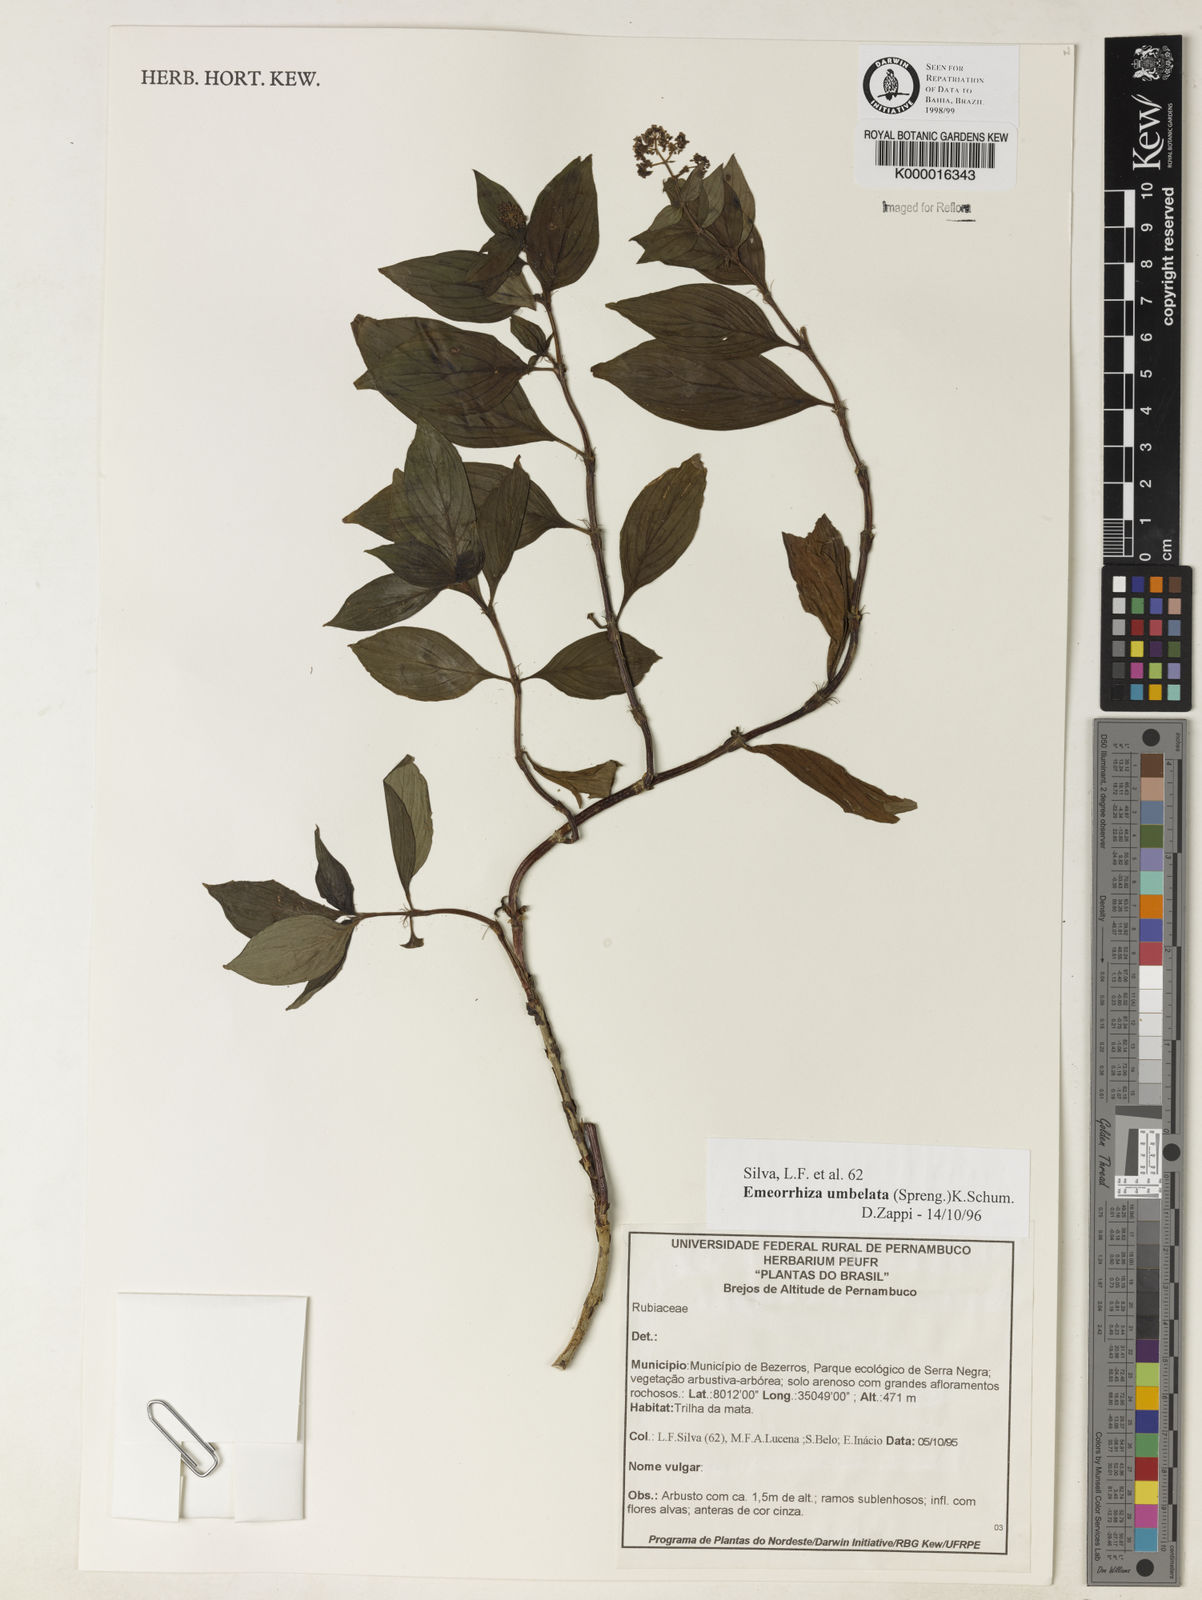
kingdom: Plantae
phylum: Tracheophyta
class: Magnoliopsida
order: Gentianales
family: Rubiaceae
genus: Emmeorhiza
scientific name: Emmeorhiza umbellata
